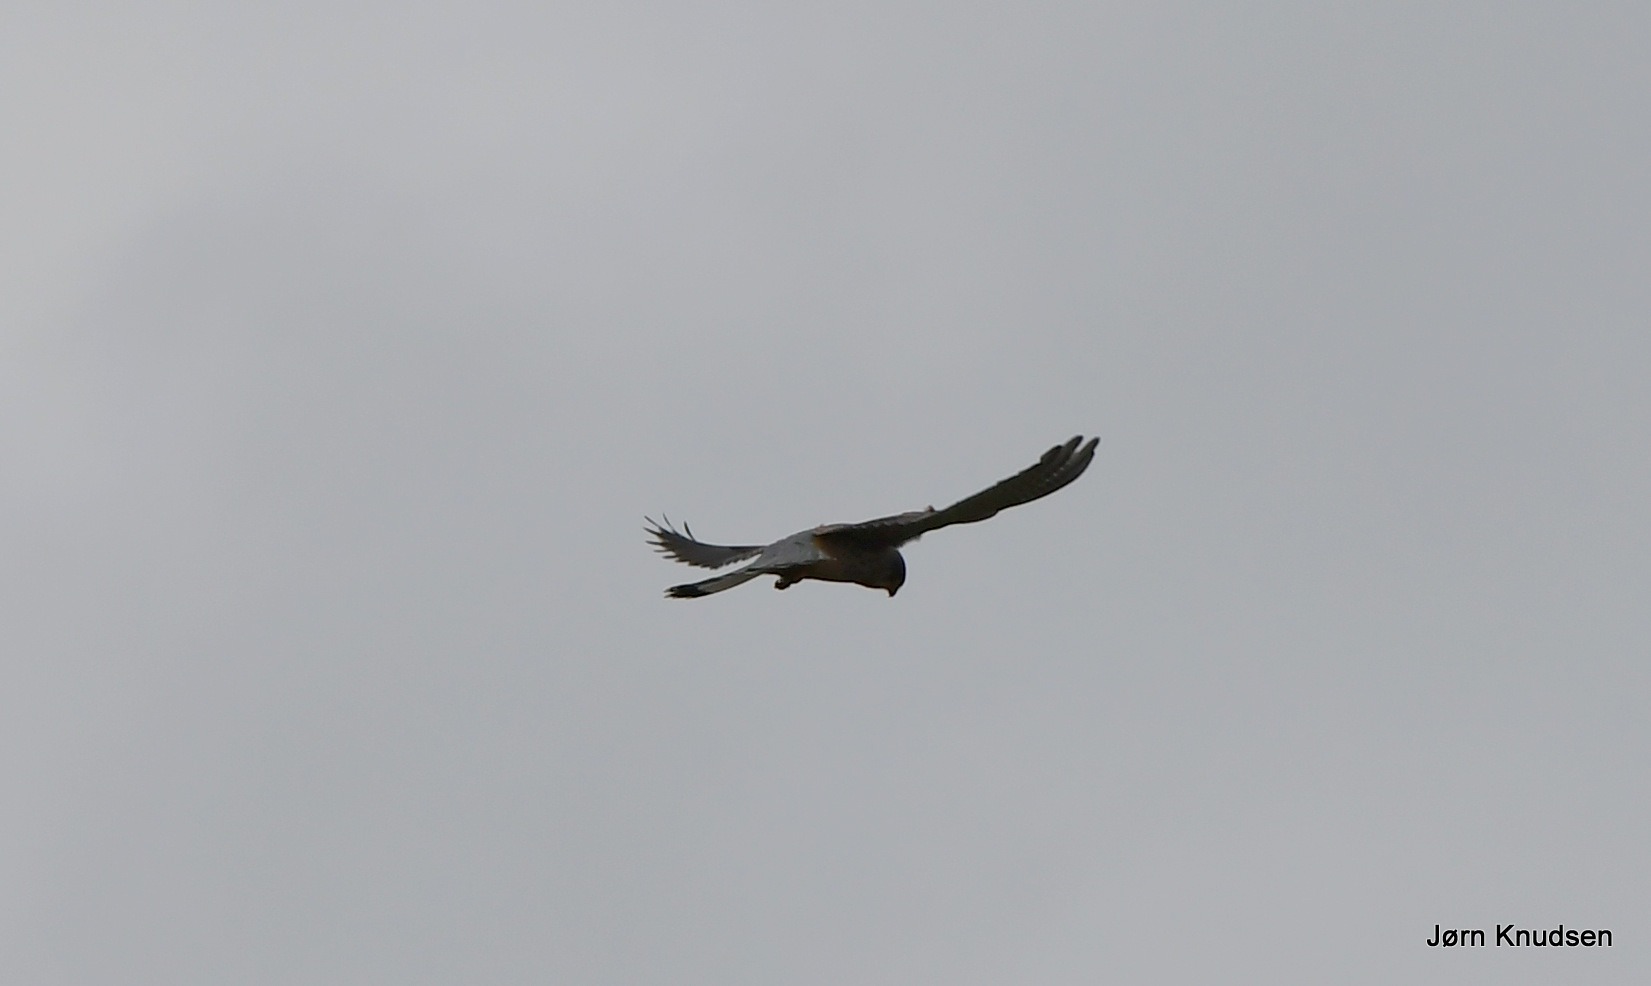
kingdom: Animalia
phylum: Chordata
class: Aves
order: Falconiformes
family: Falconidae
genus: Falco
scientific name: Falco tinnunculus
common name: Tårnfalk
